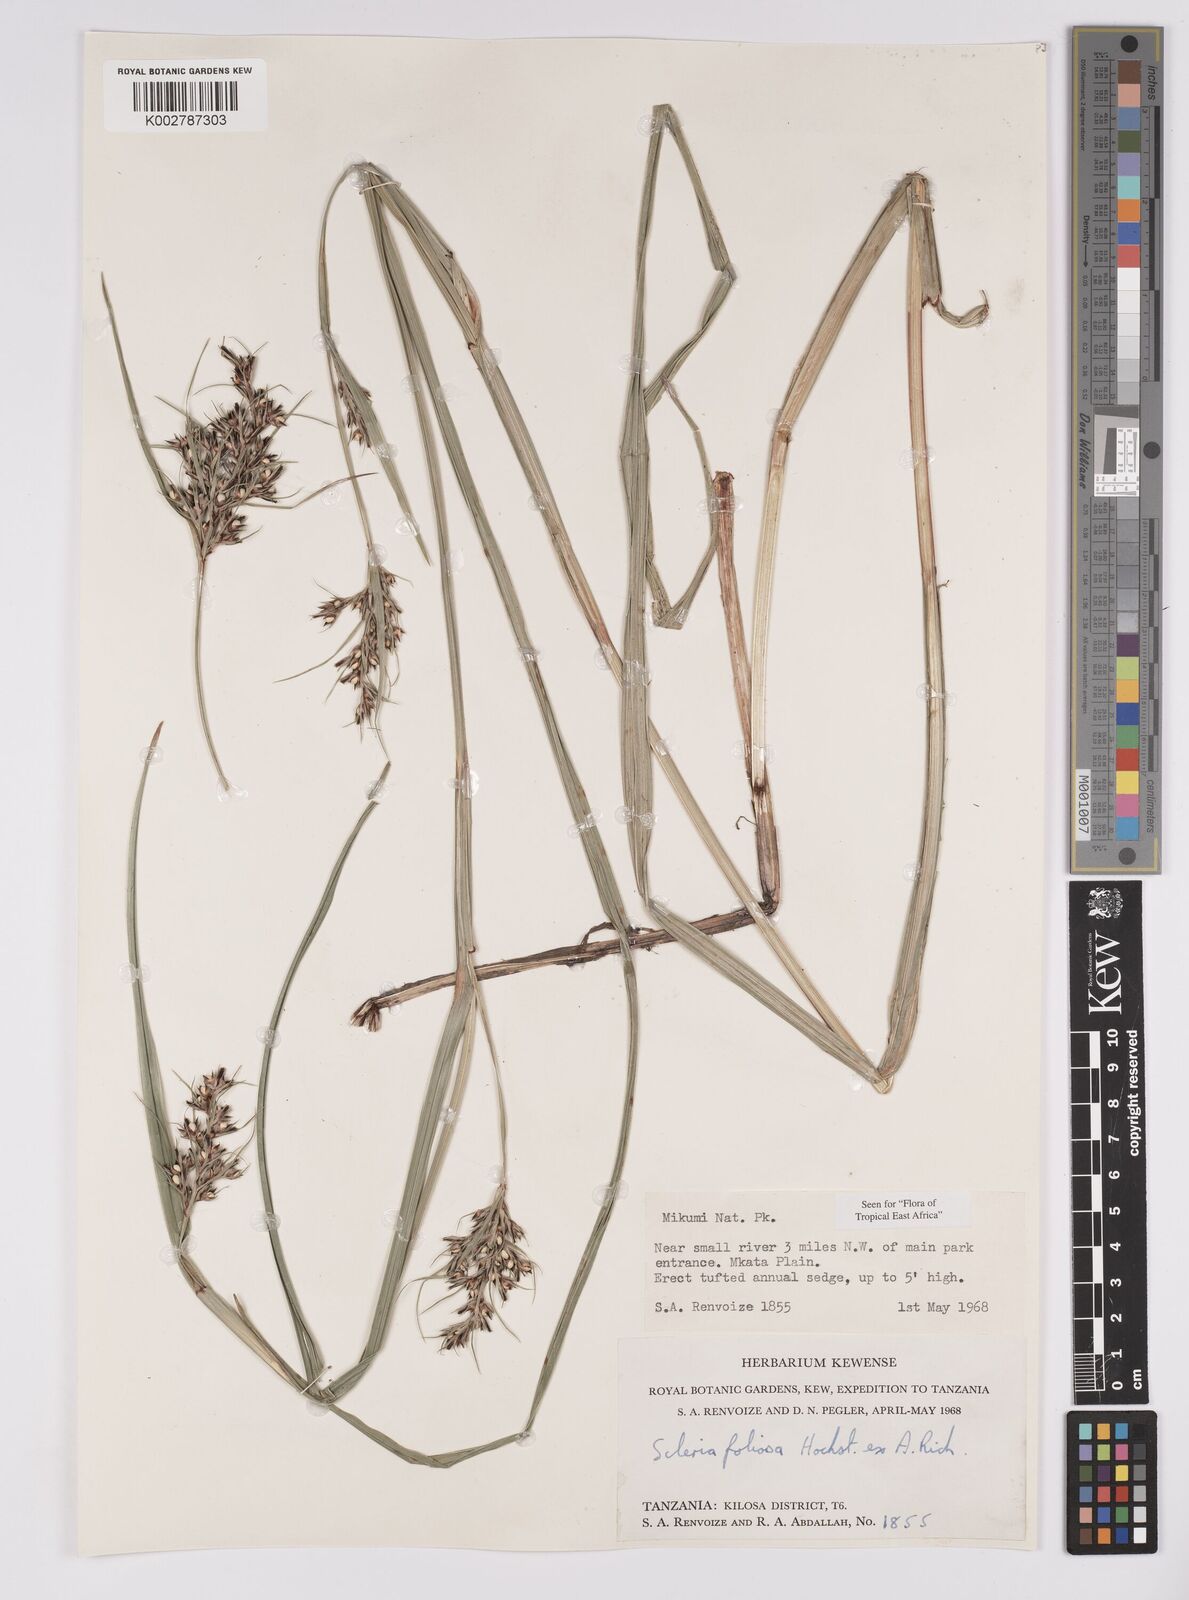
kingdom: Plantae
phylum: Tracheophyta
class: Liliopsida
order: Poales
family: Cyperaceae
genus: Scleria
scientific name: Scleria foliosa
